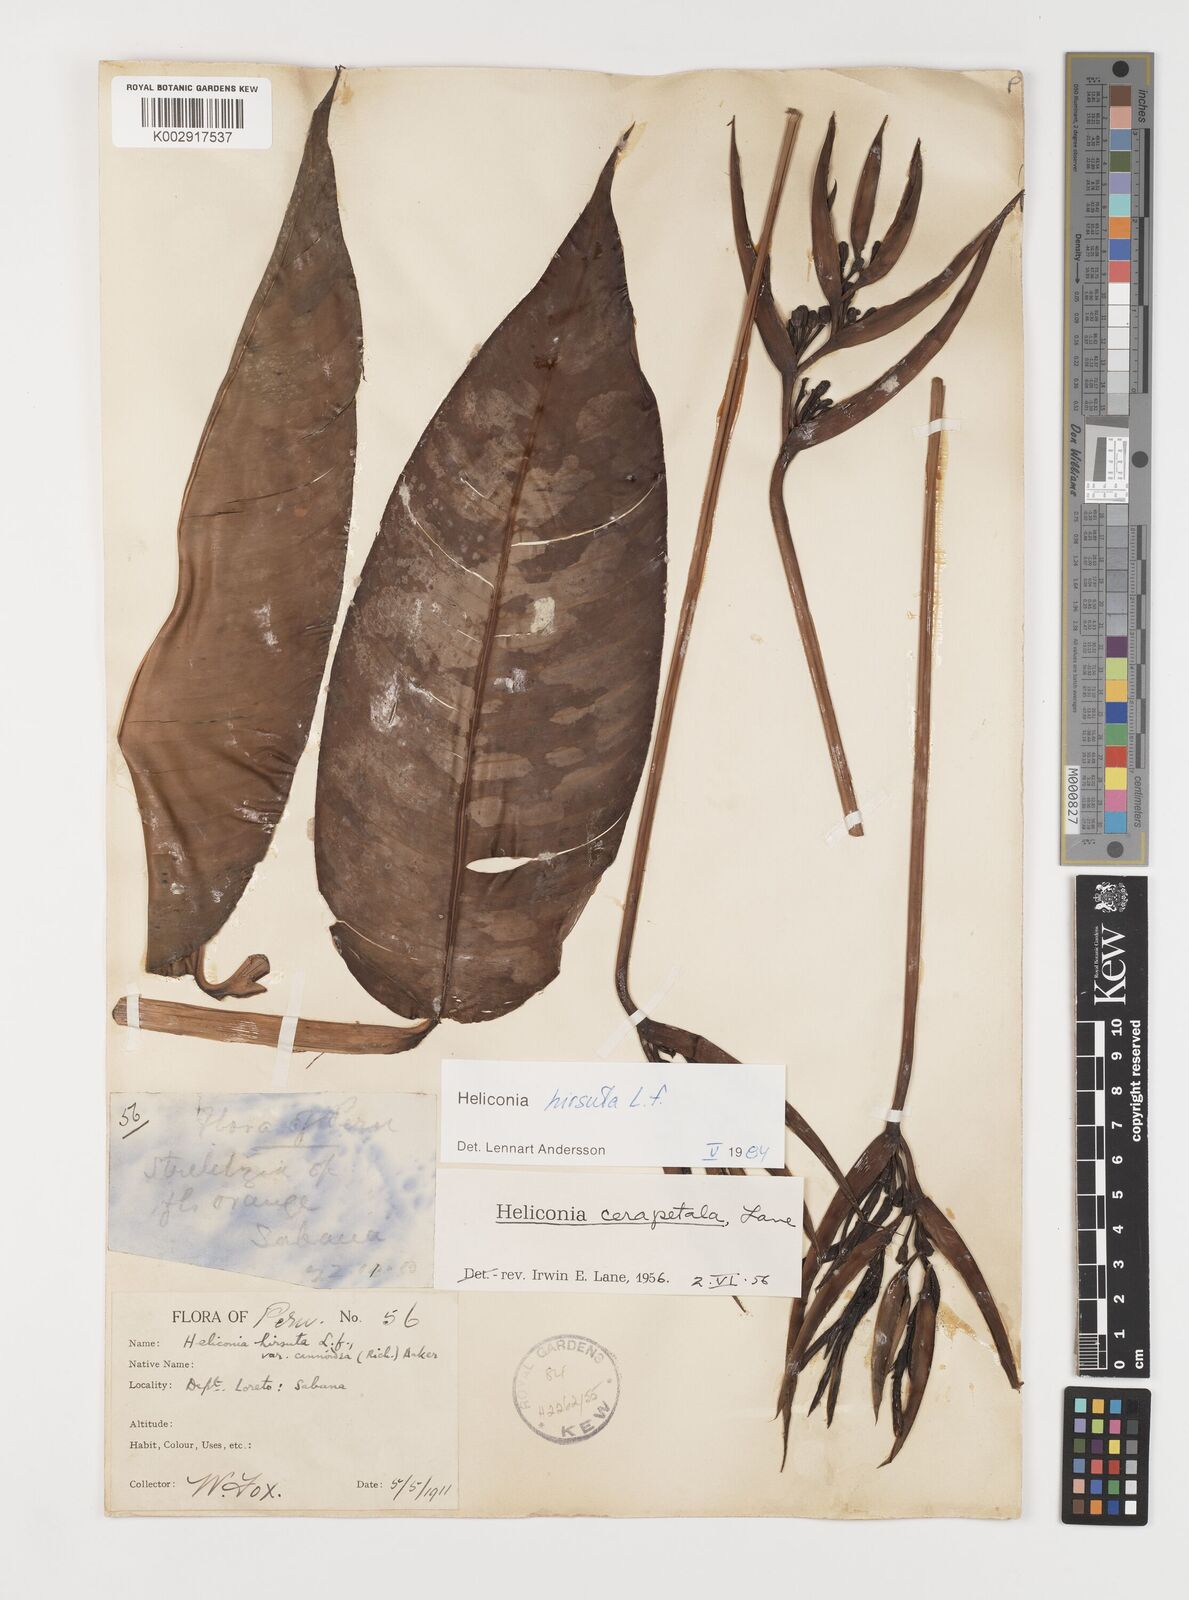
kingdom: Plantae
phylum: Tracheophyta
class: Liliopsida
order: Zingiberales
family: Heliconiaceae
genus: Heliconia
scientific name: Heliconia hirsuta
